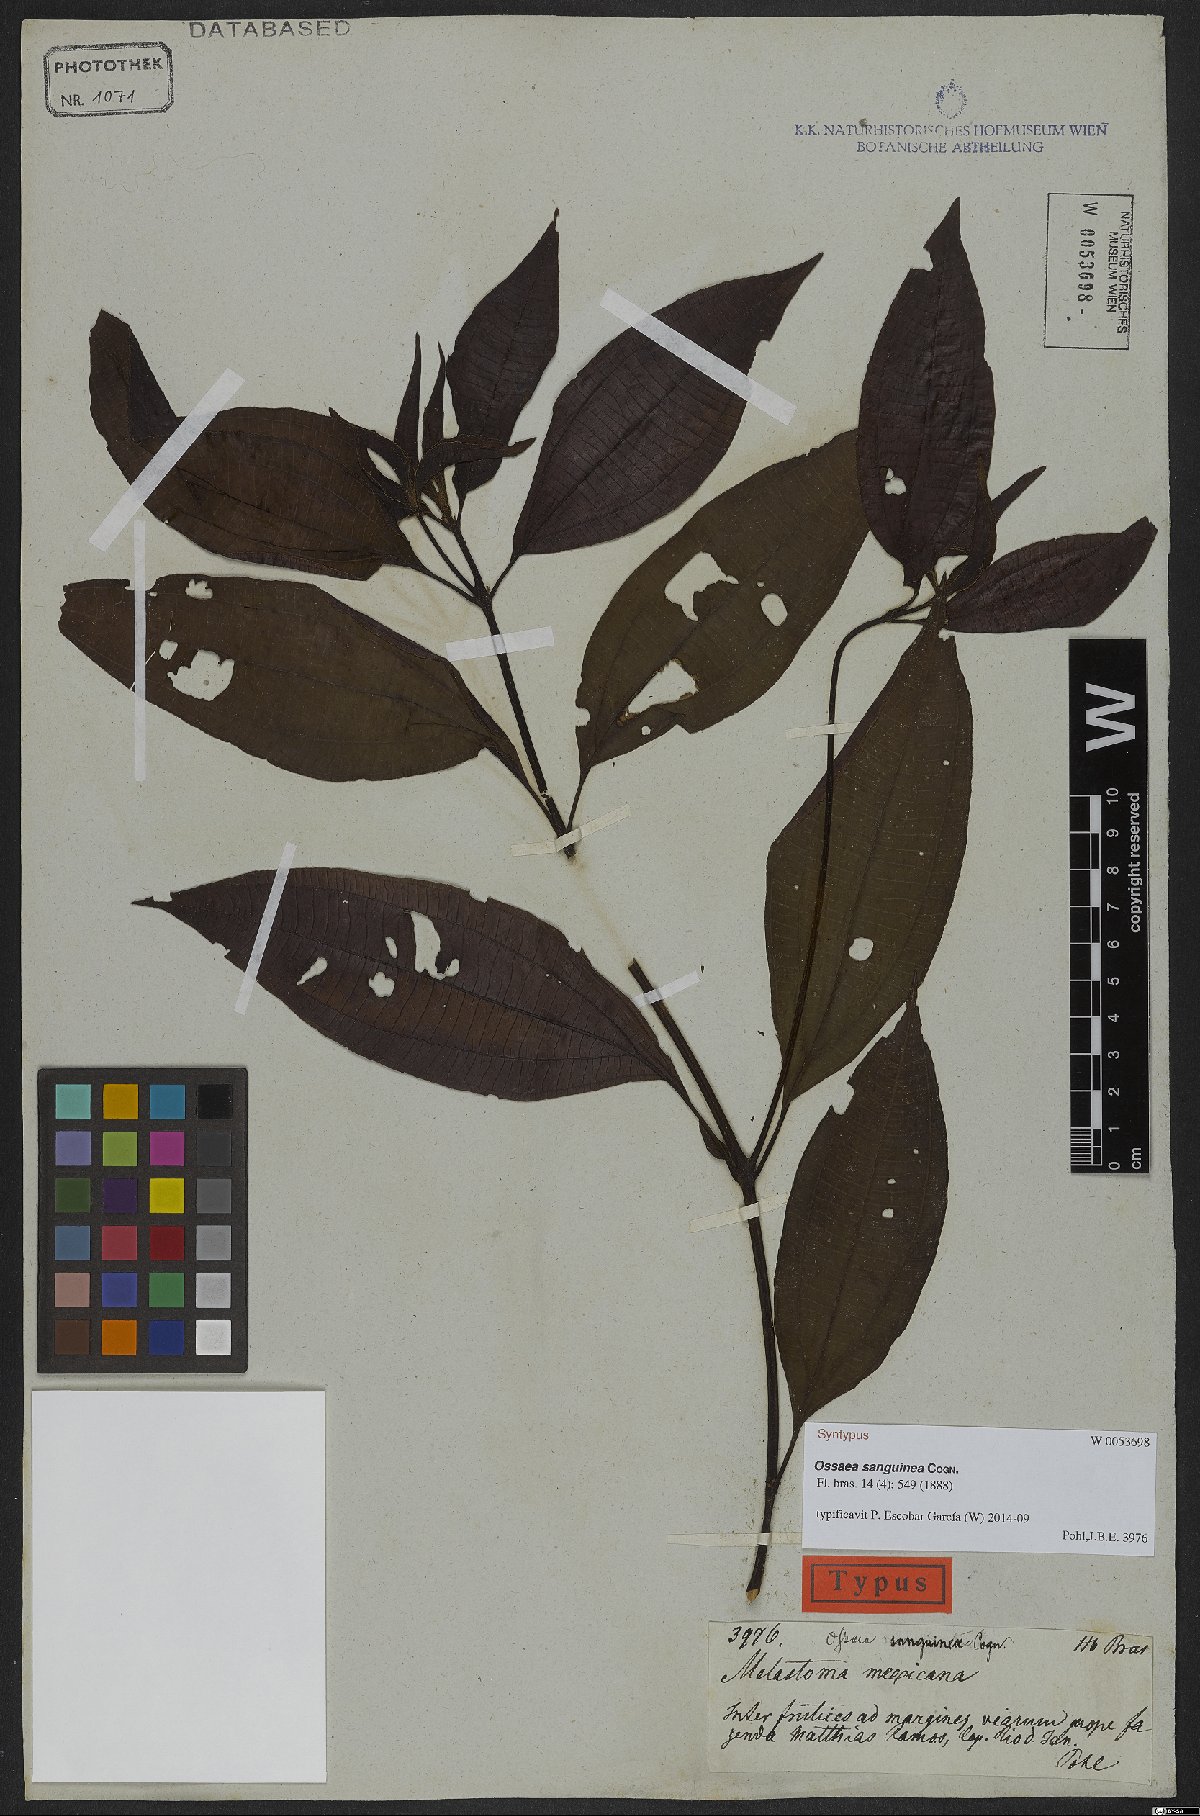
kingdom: Plantae
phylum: Tracheophyta
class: Magnoliopsida
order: Myrtales
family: Melastomataceae
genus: Miconia
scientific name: Miconia secunsanguinea
